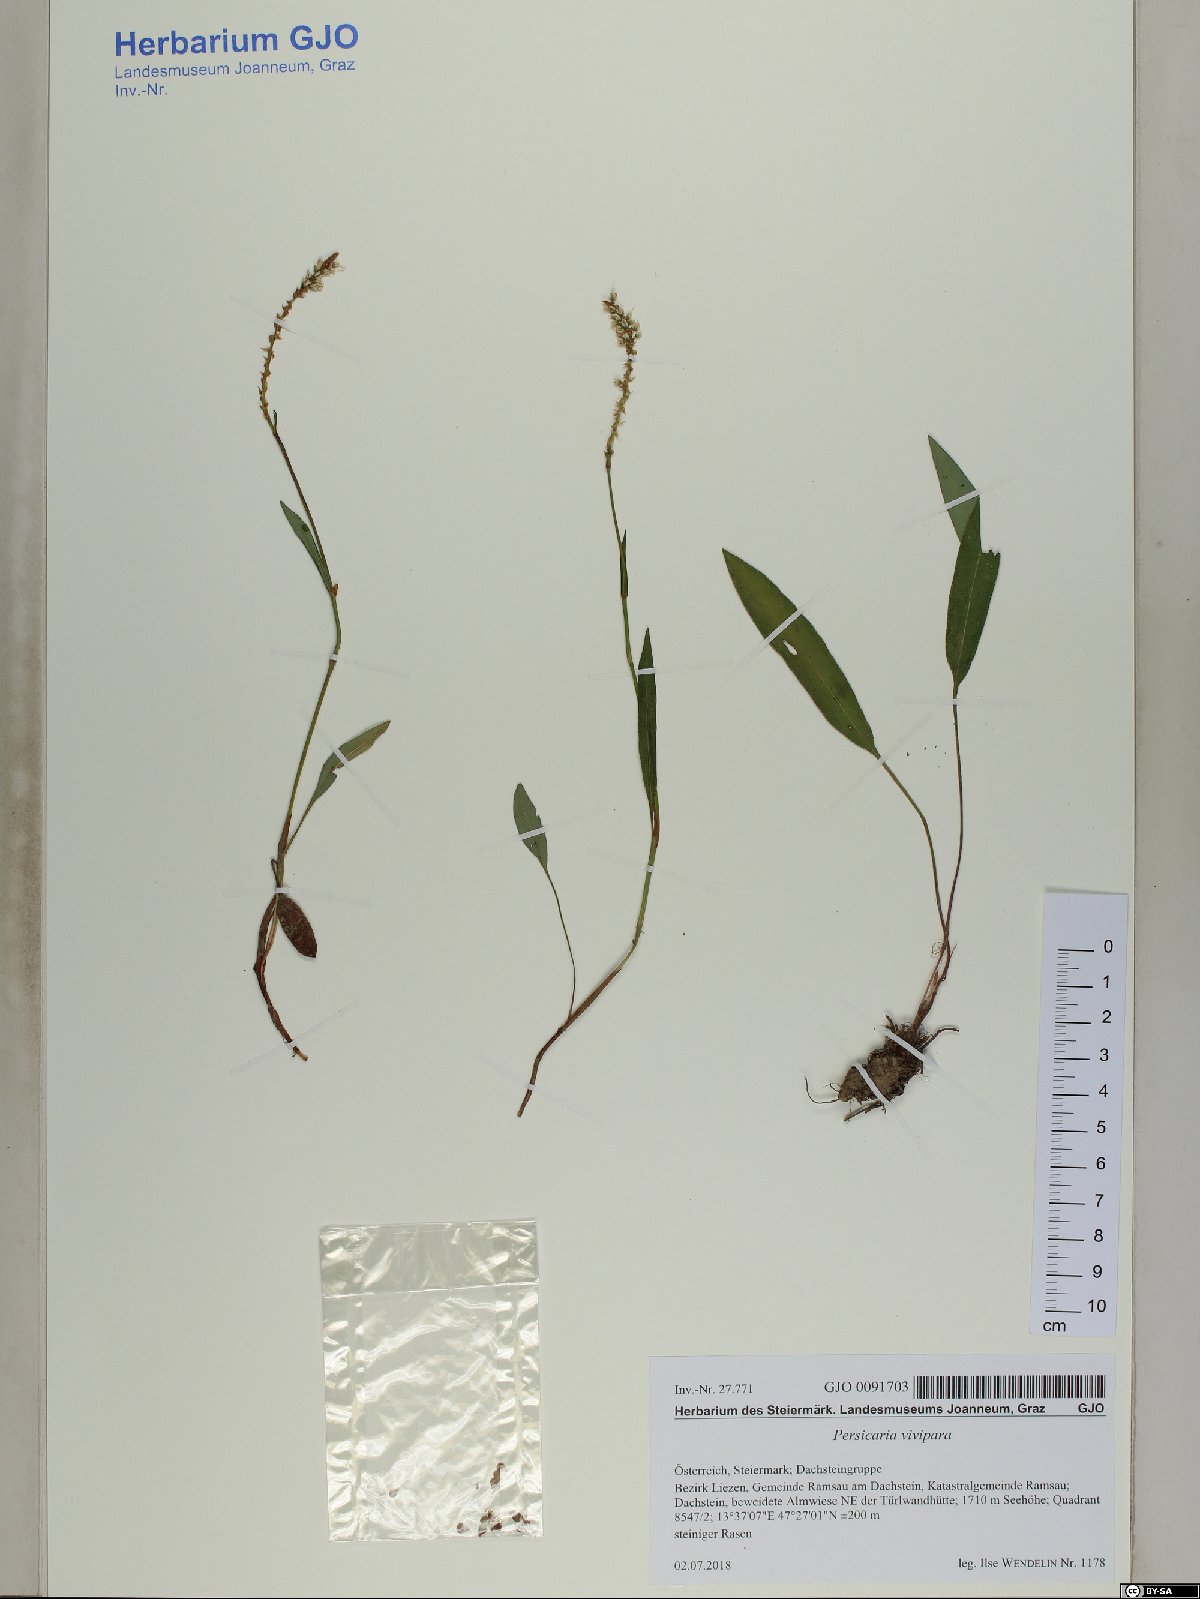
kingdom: Plantae
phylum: Tracheophyta
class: Magnoliopsida
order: Caryophyllales
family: Polygonaceae
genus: Bistorta
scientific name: Bistorta vivipara
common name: Alpine bistort
